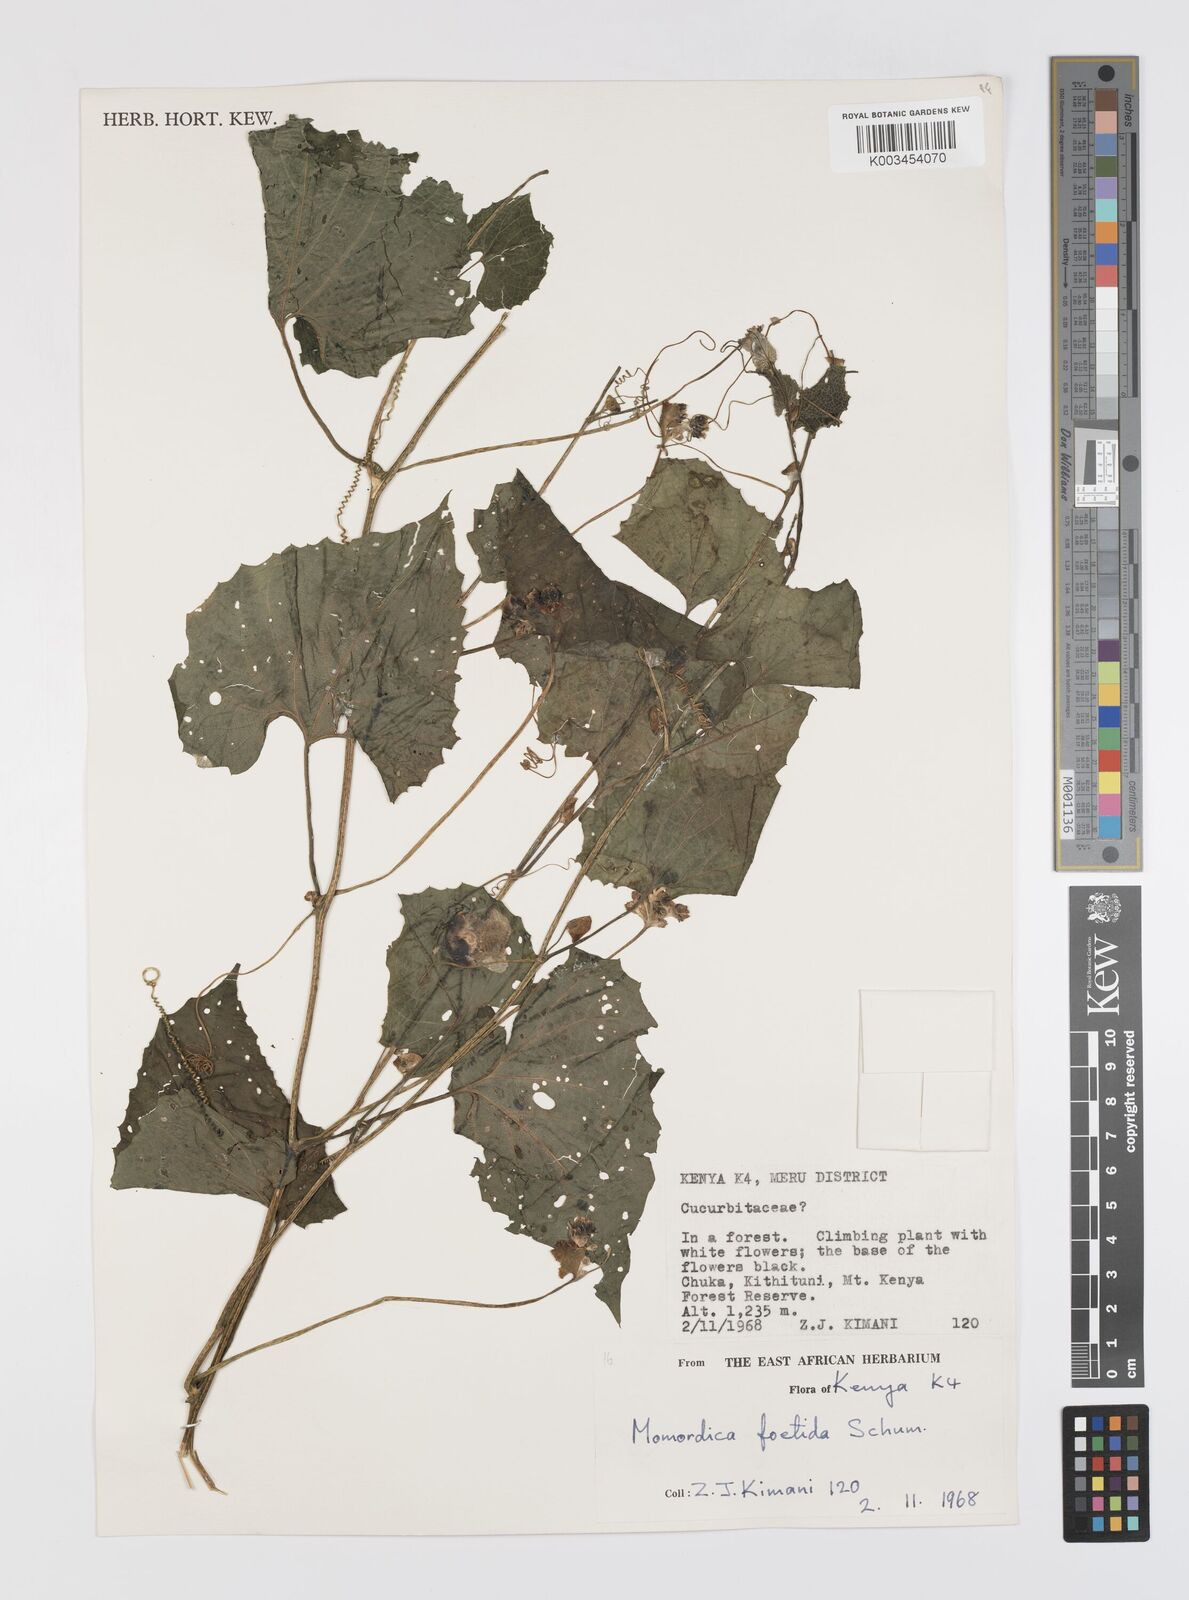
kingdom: Plantae
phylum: Tracheophyta
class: Magnoliopsida
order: Cucurbitales
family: Cucurbitaceae
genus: Momordica
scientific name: Momordica foetida
